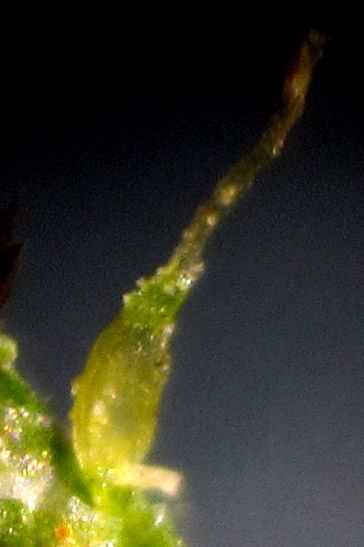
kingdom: Plantae
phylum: Tracheophyta
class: Liliopsida
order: Poales
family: Cyperaceae
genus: Eleocharis
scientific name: Eleocharis acicularis
